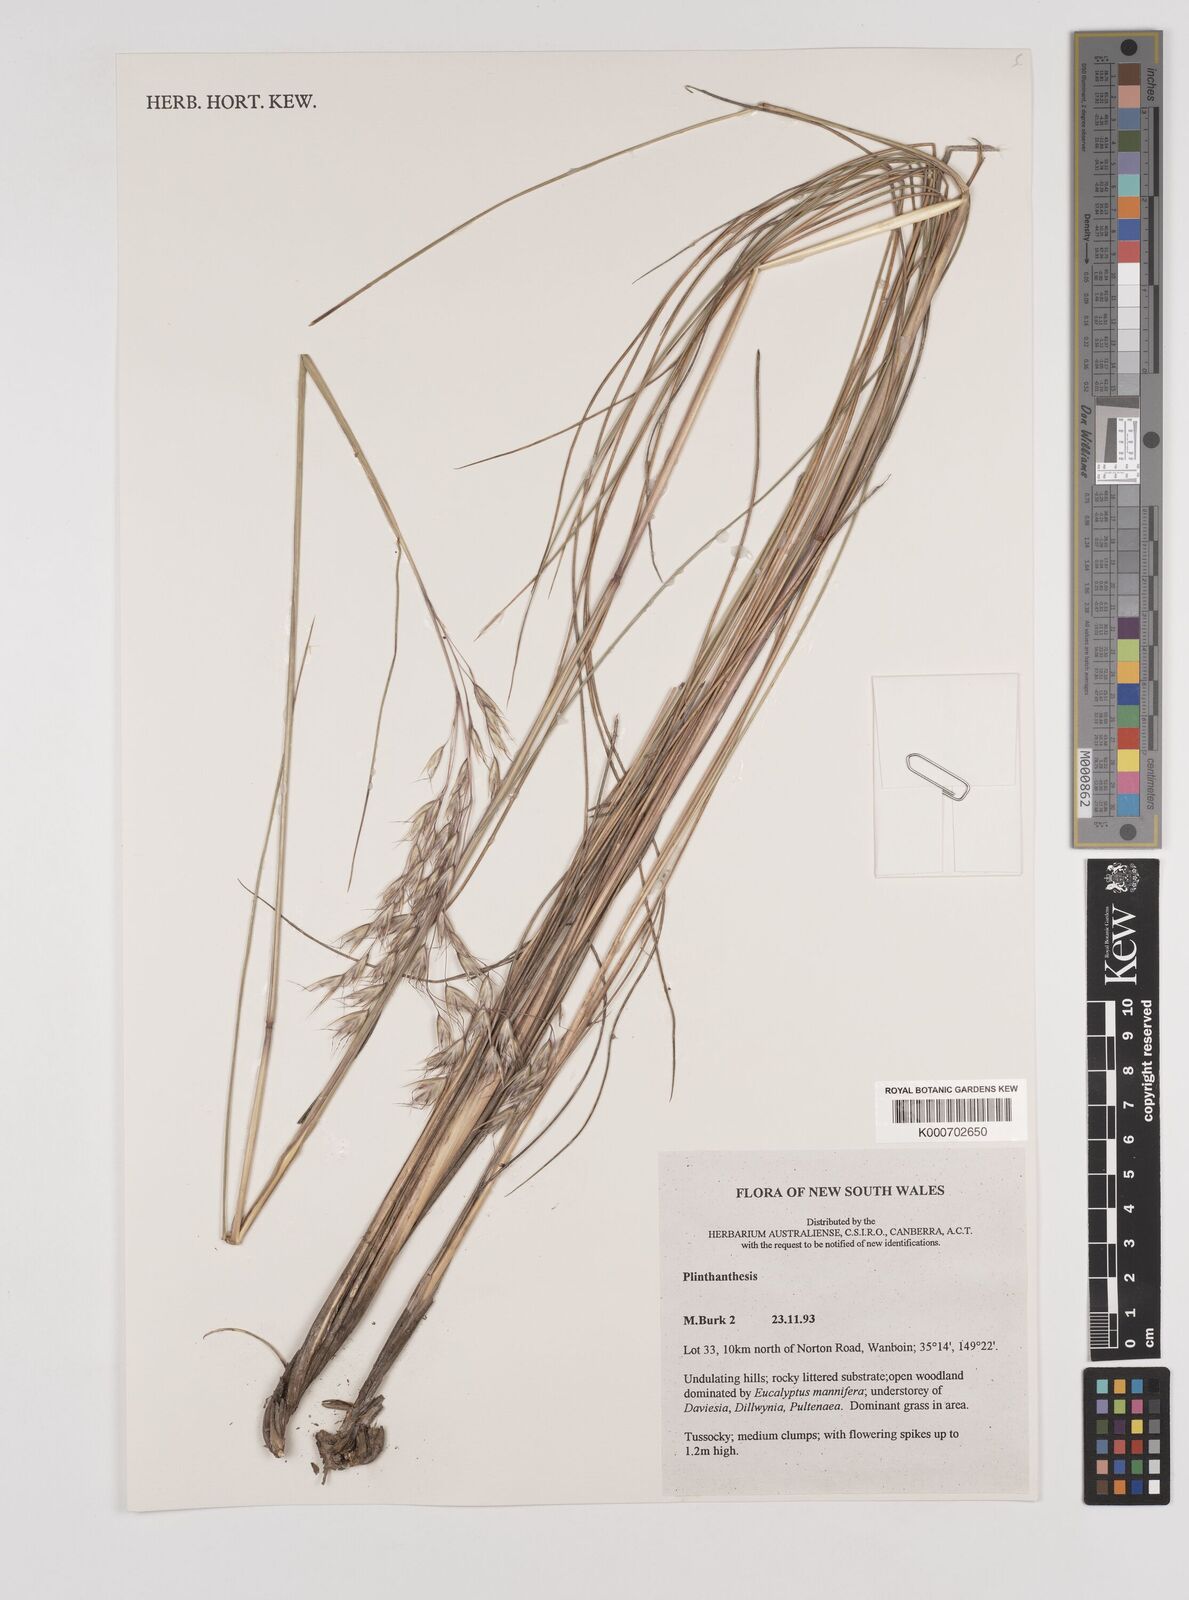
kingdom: Plantae
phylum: Tracheophyta
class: Liliopsida
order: Poales
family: Poaceae
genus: Plinthanthesis
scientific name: Plinthanthesis urvillei
